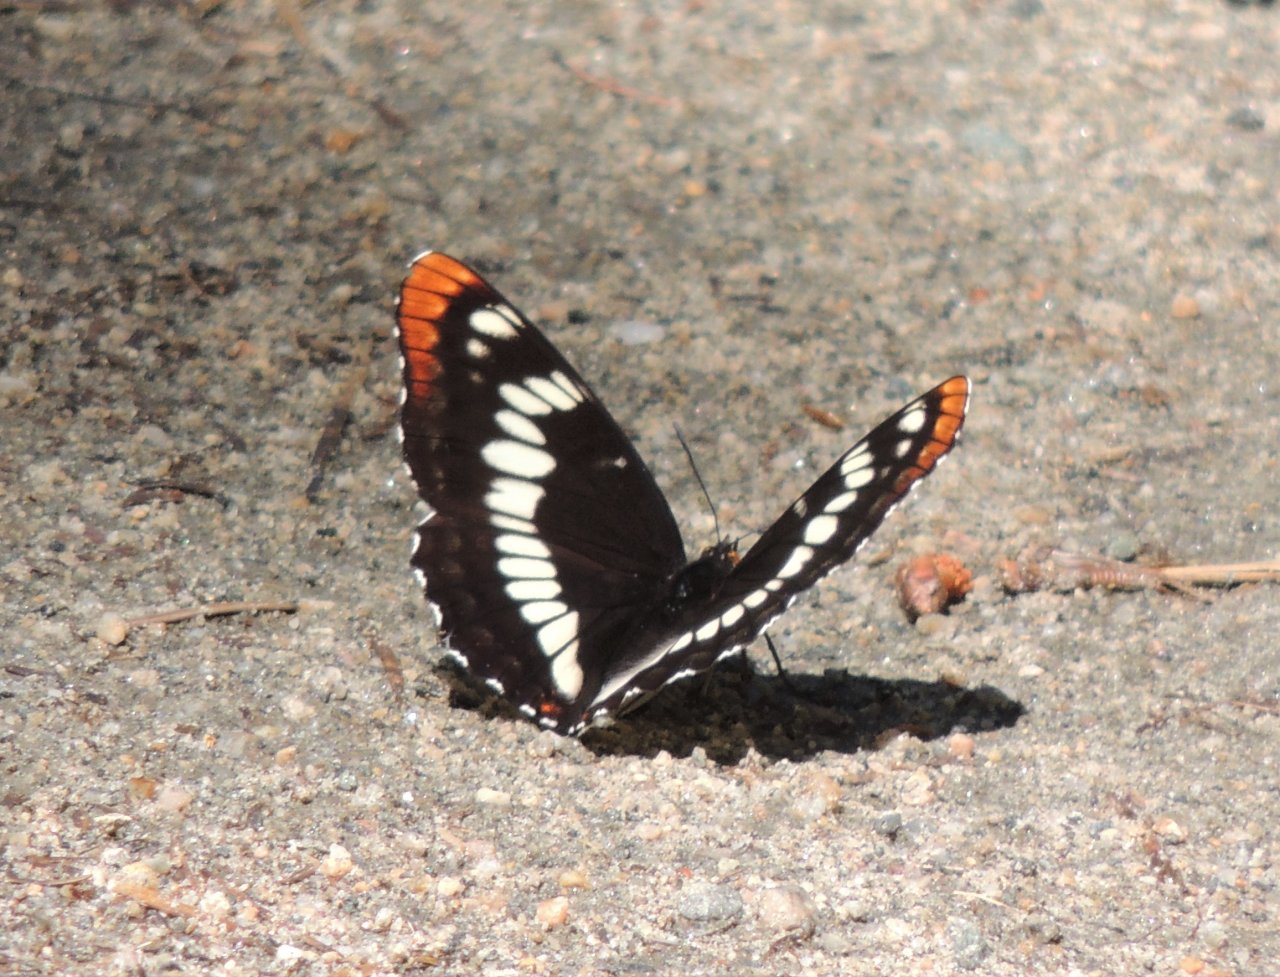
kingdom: Animalia
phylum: Arthropoda
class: Insecta
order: Lepidoptera
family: Nymphalidae
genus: Limenitis
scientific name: Limenitis lorquini
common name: Lorquin's Admiral
